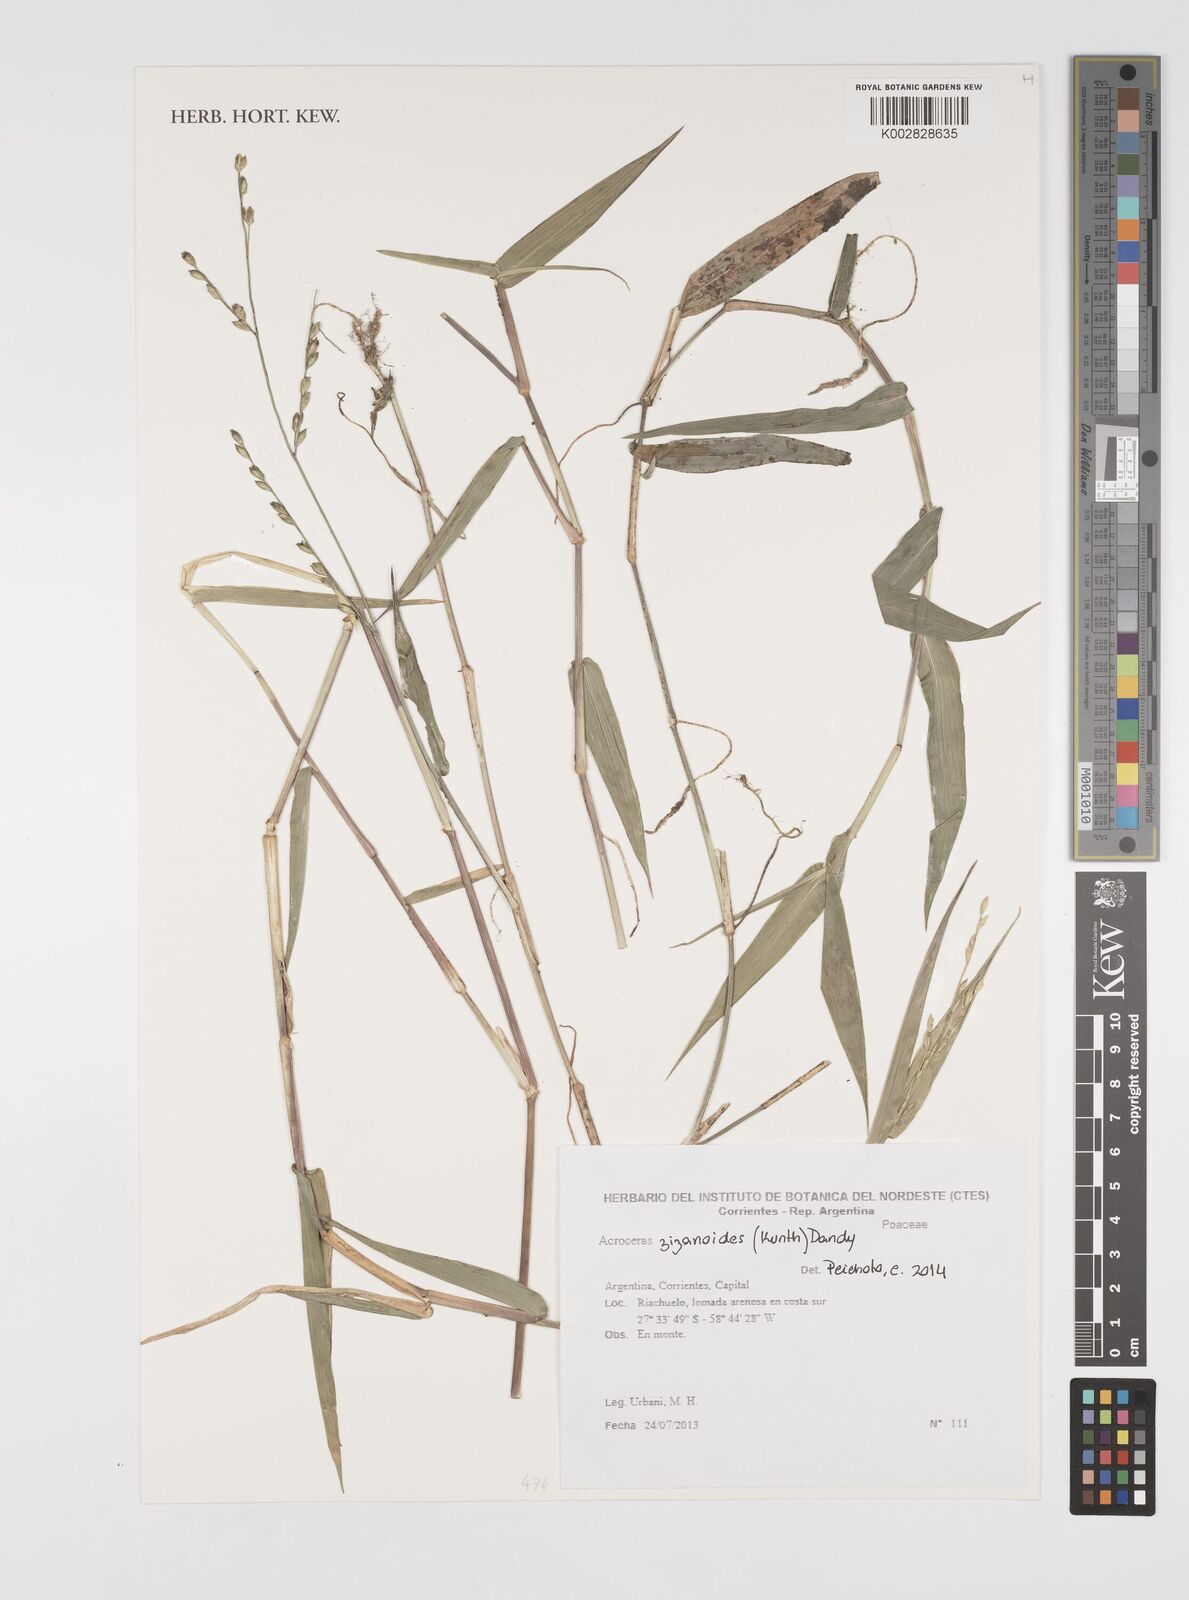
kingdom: Plantae
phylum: Tracheophyta
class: Liliopsida
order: Poales
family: Poaceae
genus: Acroceras
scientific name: Acroceras zizanioides
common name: Oat grass
